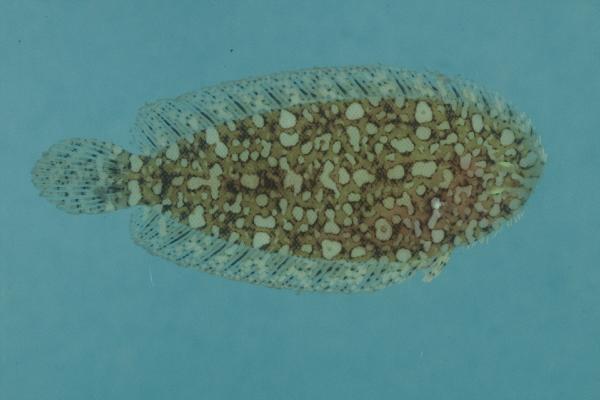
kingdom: Animalia
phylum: Chordata
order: Pleuronectiformes
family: Soleidae
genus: Aseraggodes
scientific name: Aseraggodes xenicus
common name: Dwarf sole
